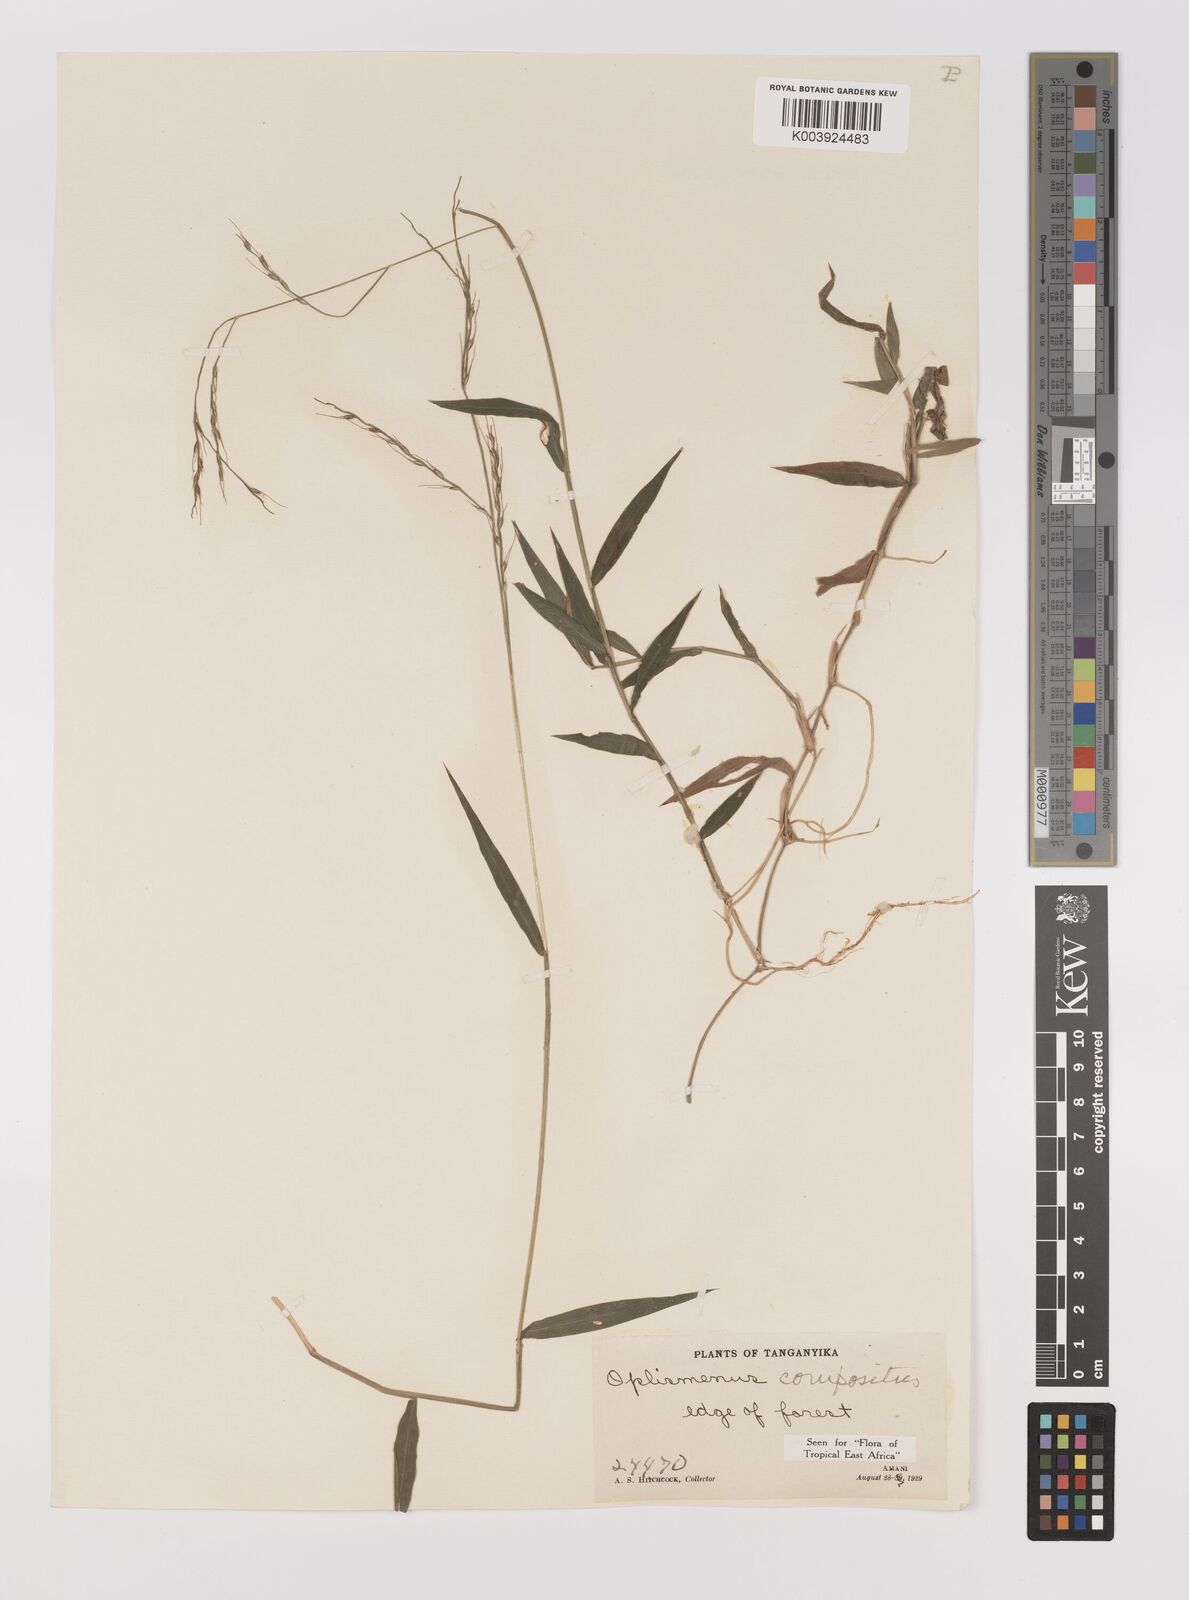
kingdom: Plantae
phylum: Tracheophyta
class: Liliopsida
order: Poales
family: Poaceae
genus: Oplismenus
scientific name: Oplismenus compositus
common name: Running mountain grass
